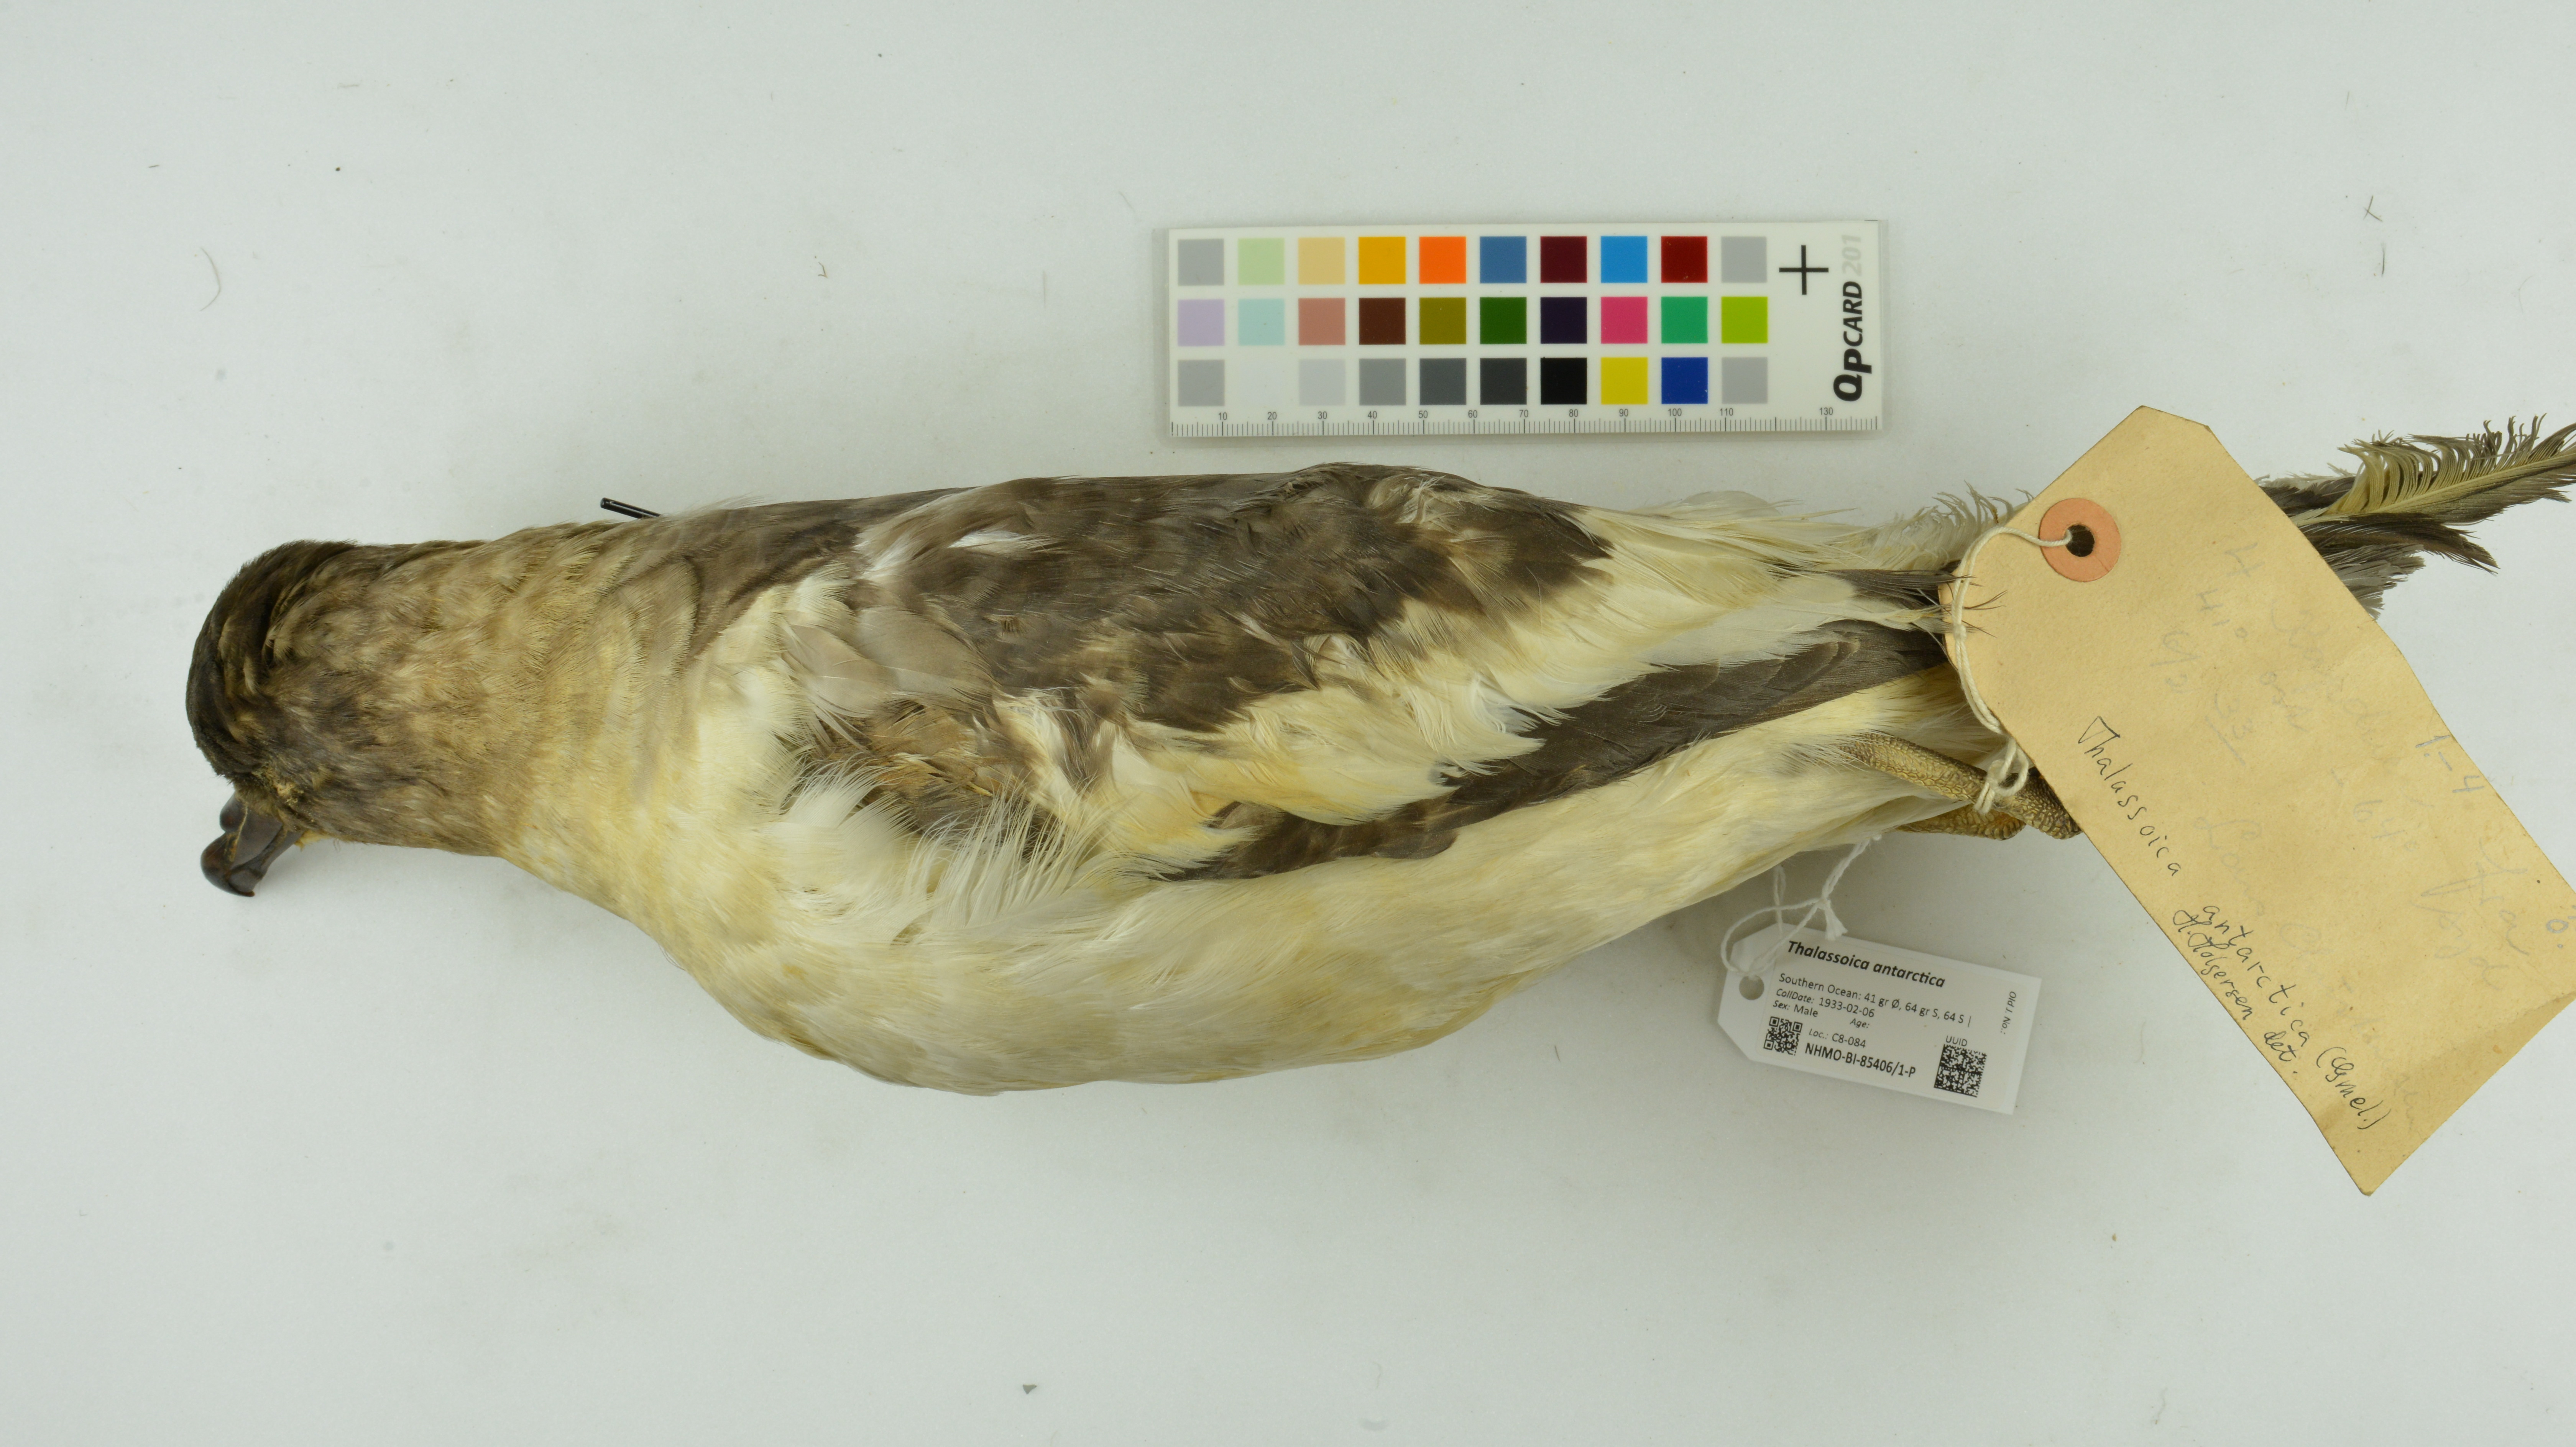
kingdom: Animalia
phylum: Chordata
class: Aves
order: Procellariiformes
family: Procellariidae
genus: Thalassoica
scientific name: Thalassoica antarctica
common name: Antarctic petrel
